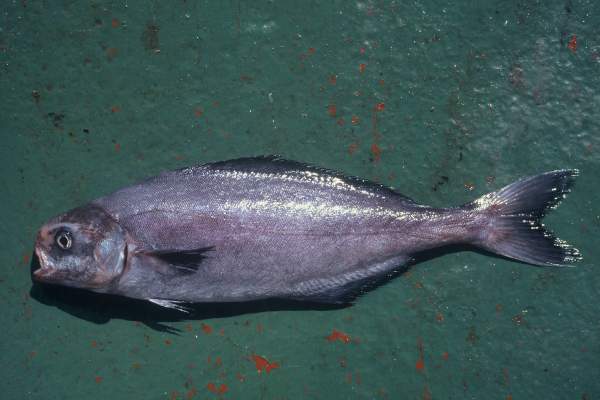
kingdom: Animalia
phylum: Chordata
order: Perciformes
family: Centrolophidae
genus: Centrolophus
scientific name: Centrolophus niger
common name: Blackfish
